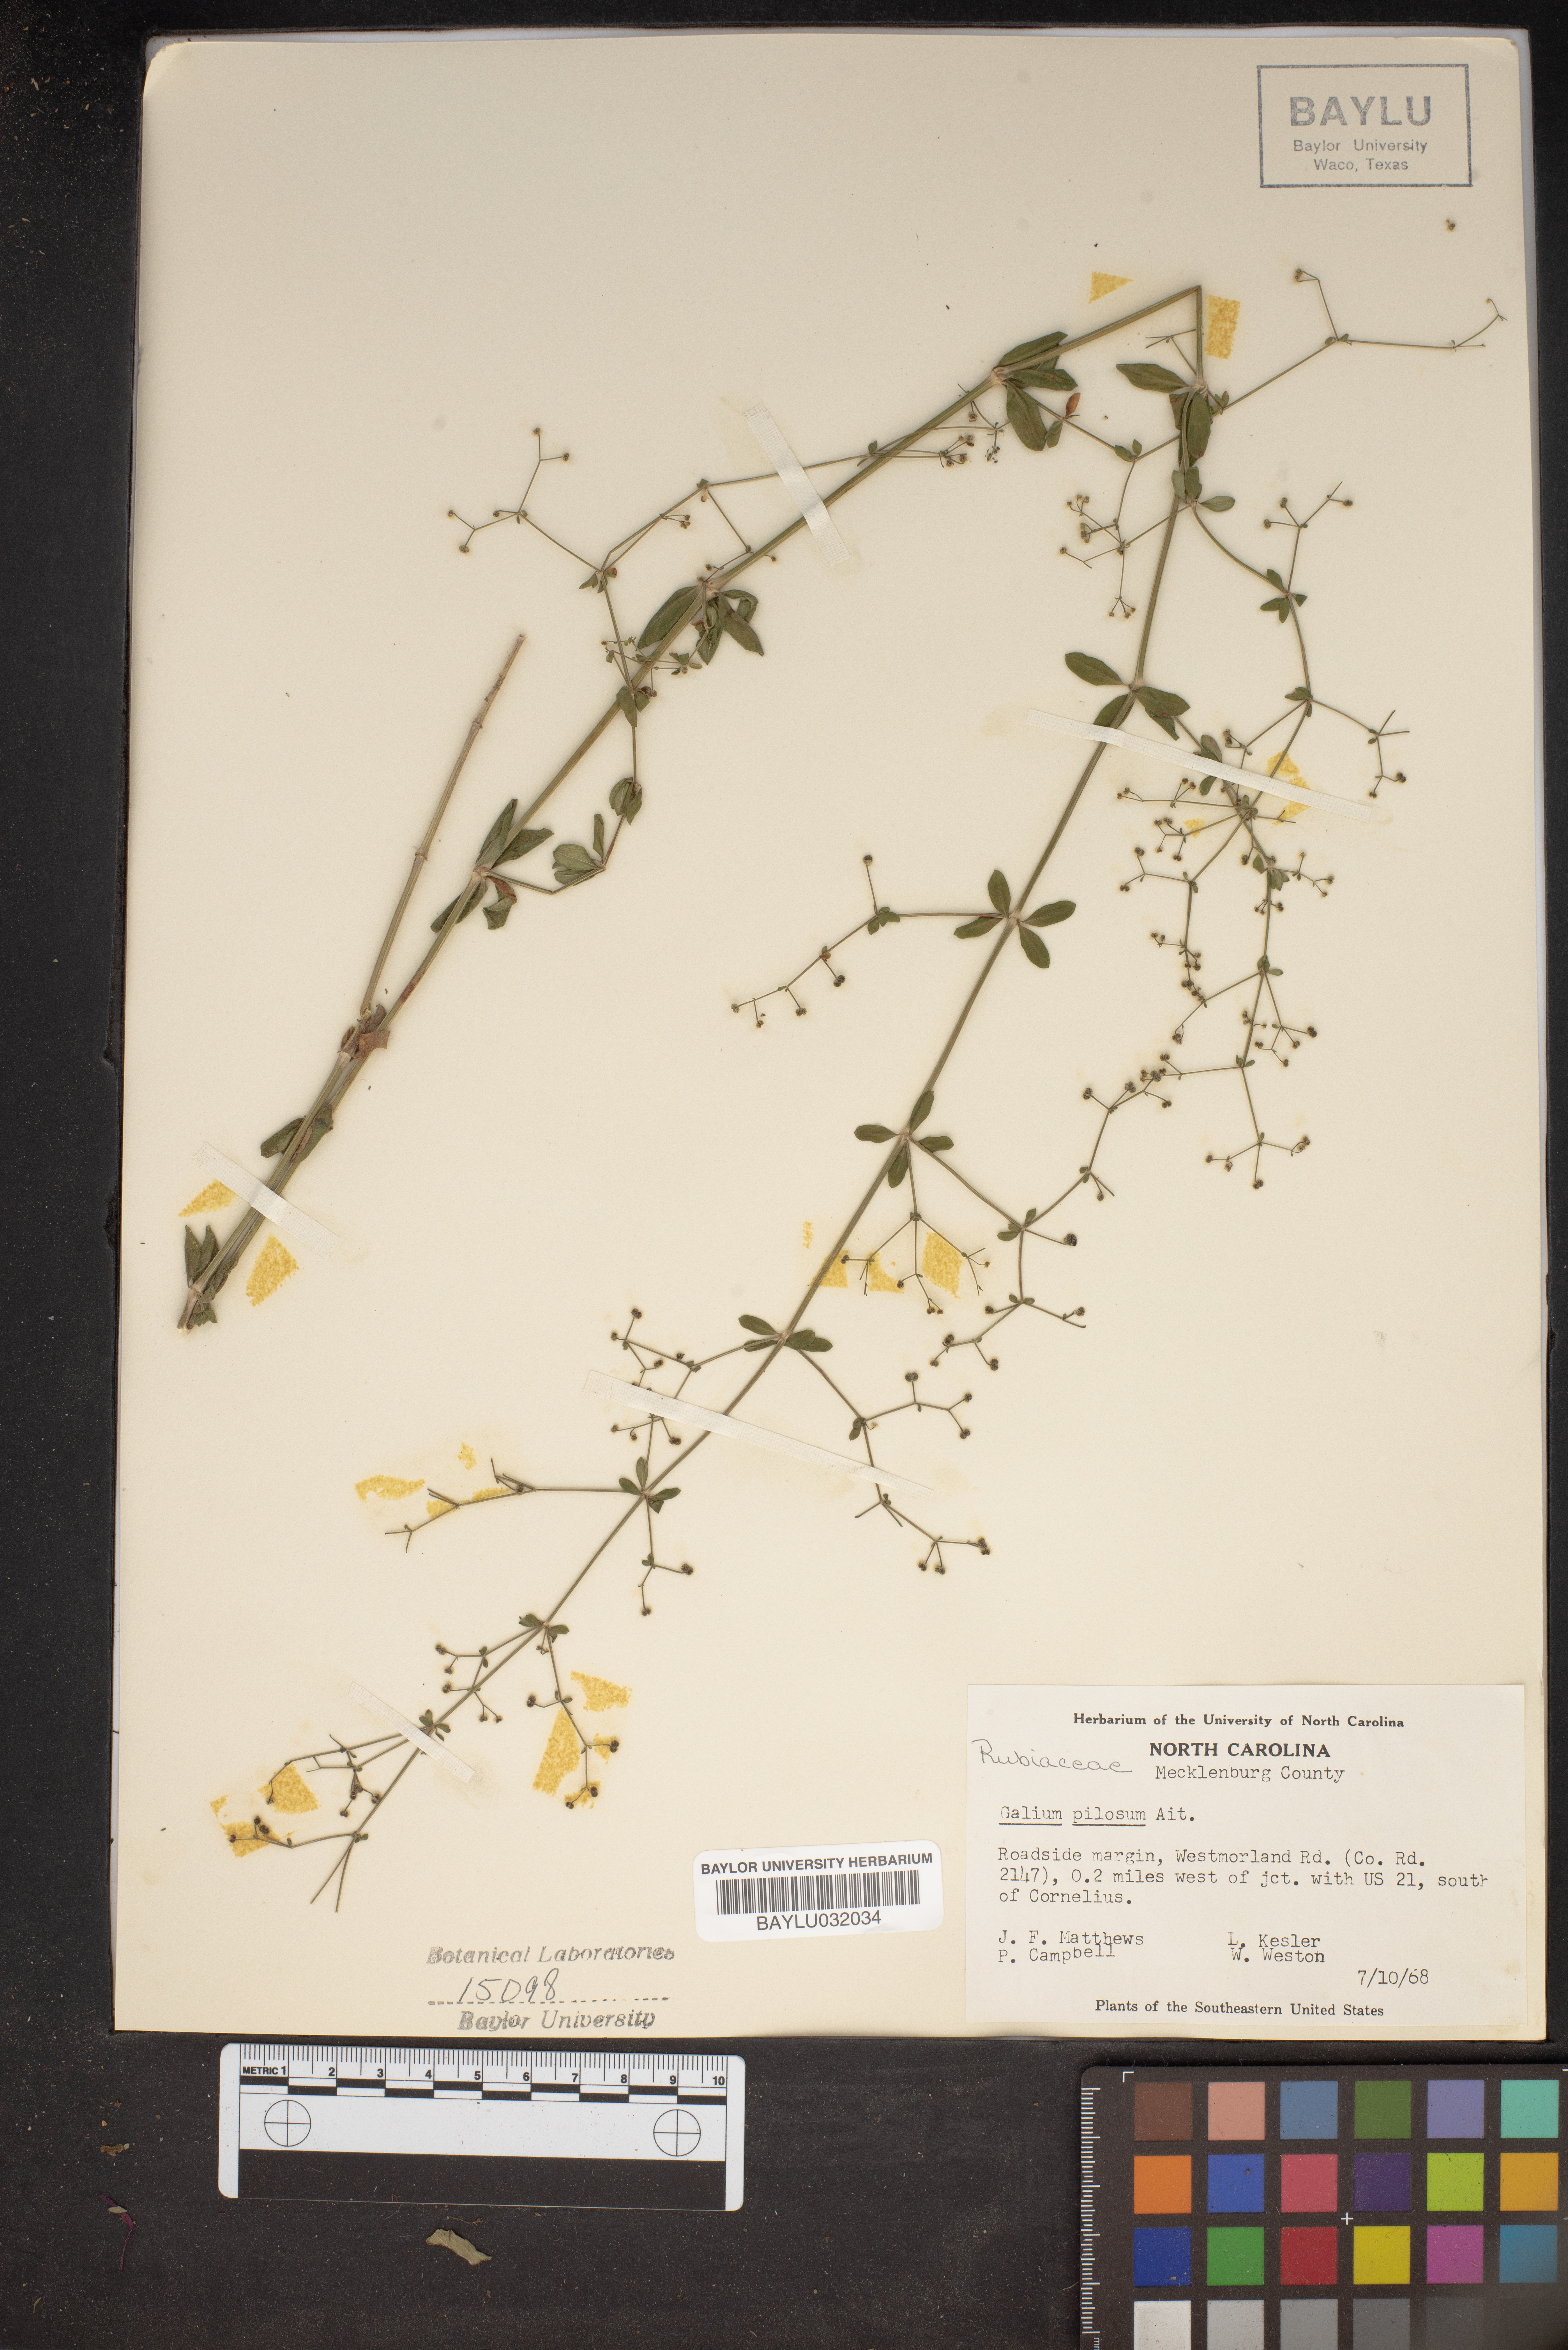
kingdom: Plantae
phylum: Tracheophyta
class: Magnoliopsida
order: Gentianales
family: Rubiaceae
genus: Galium
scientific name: Galium pilosum
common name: Hairy bedstraw
